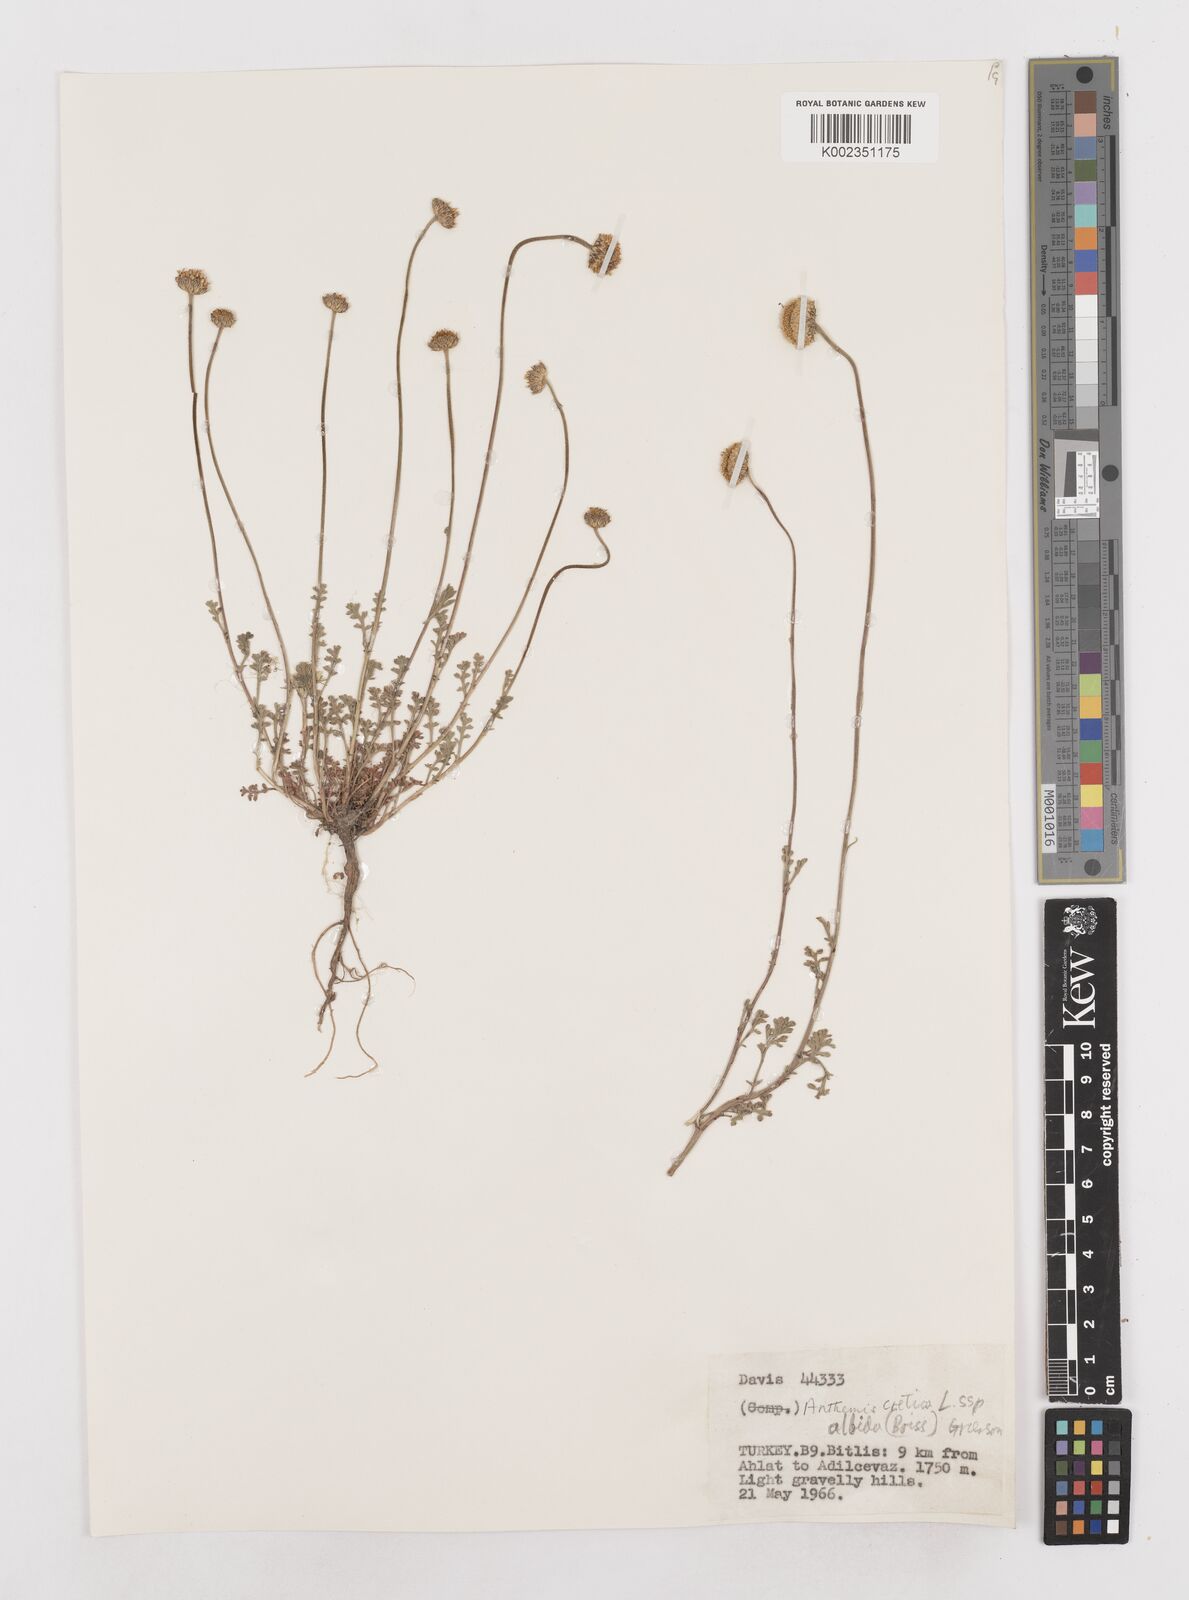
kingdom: Plantae
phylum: Tracheophyta
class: Magnoliopsida
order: Asterales
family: Asteraceae
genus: Anthemis
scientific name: Anthemis cretica
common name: Mountain dog-daisy
